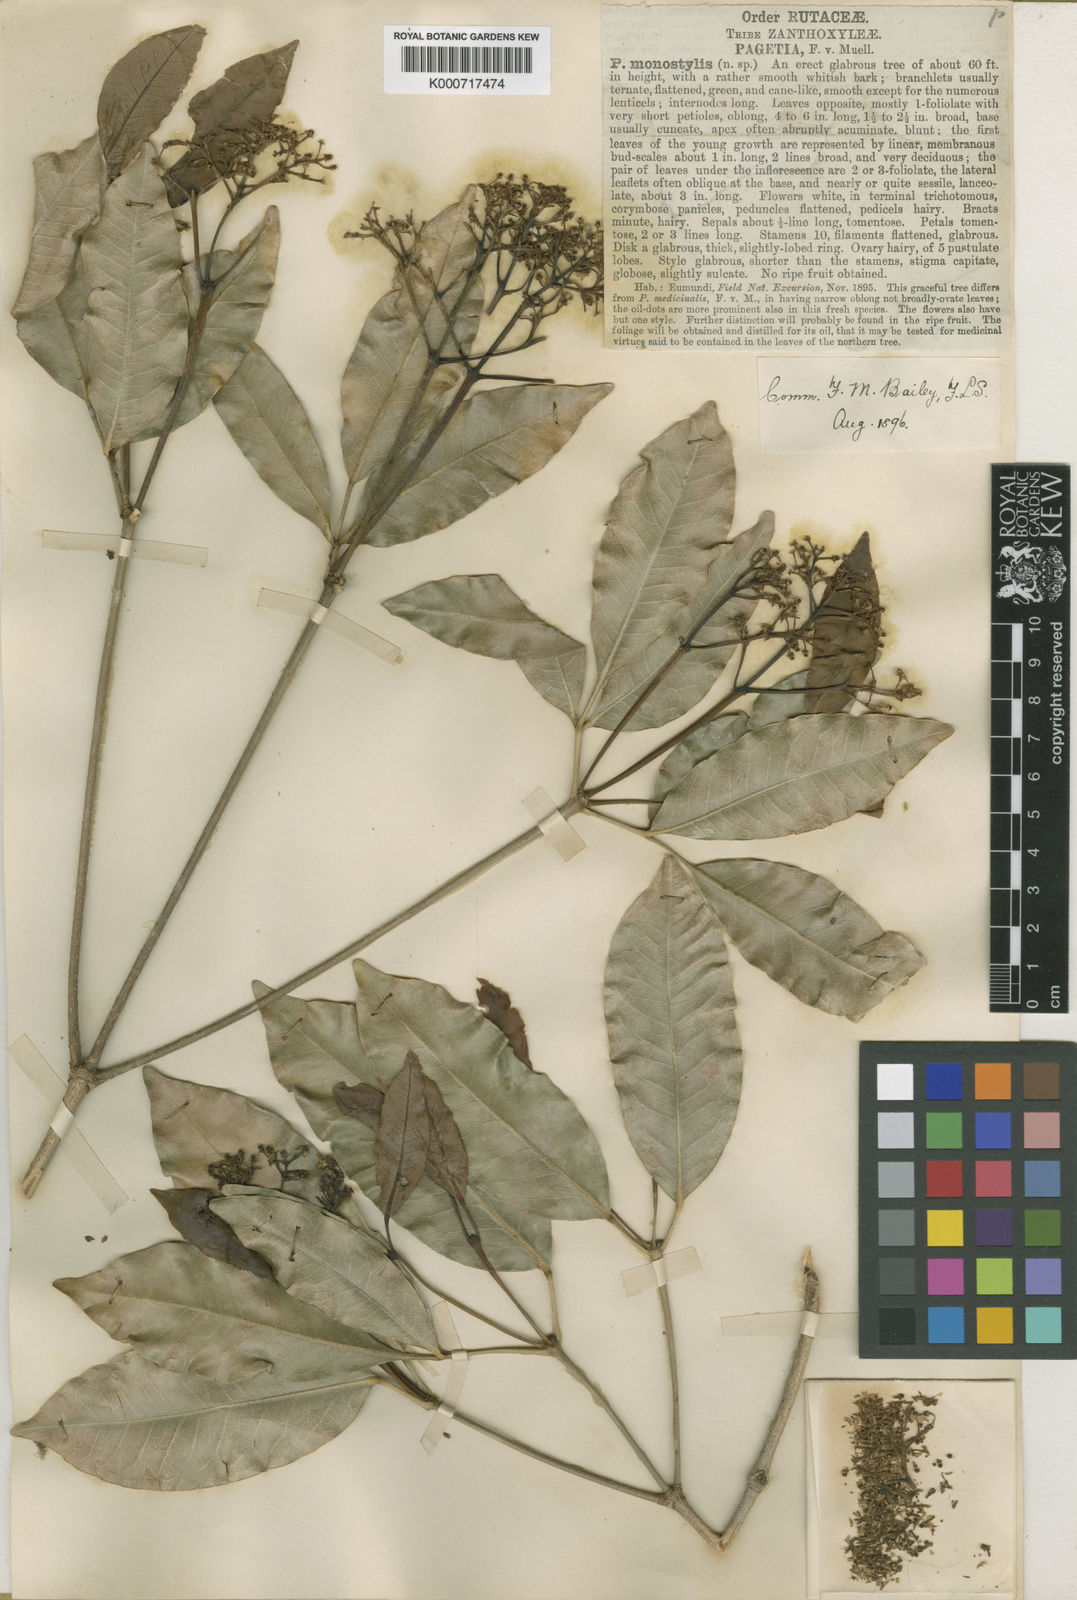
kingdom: Plantae
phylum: Tracheophyta
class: Magnoliopsida
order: Sapindales
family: Rutaceae
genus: Bosistoa
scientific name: Bosistoa medicinalis
